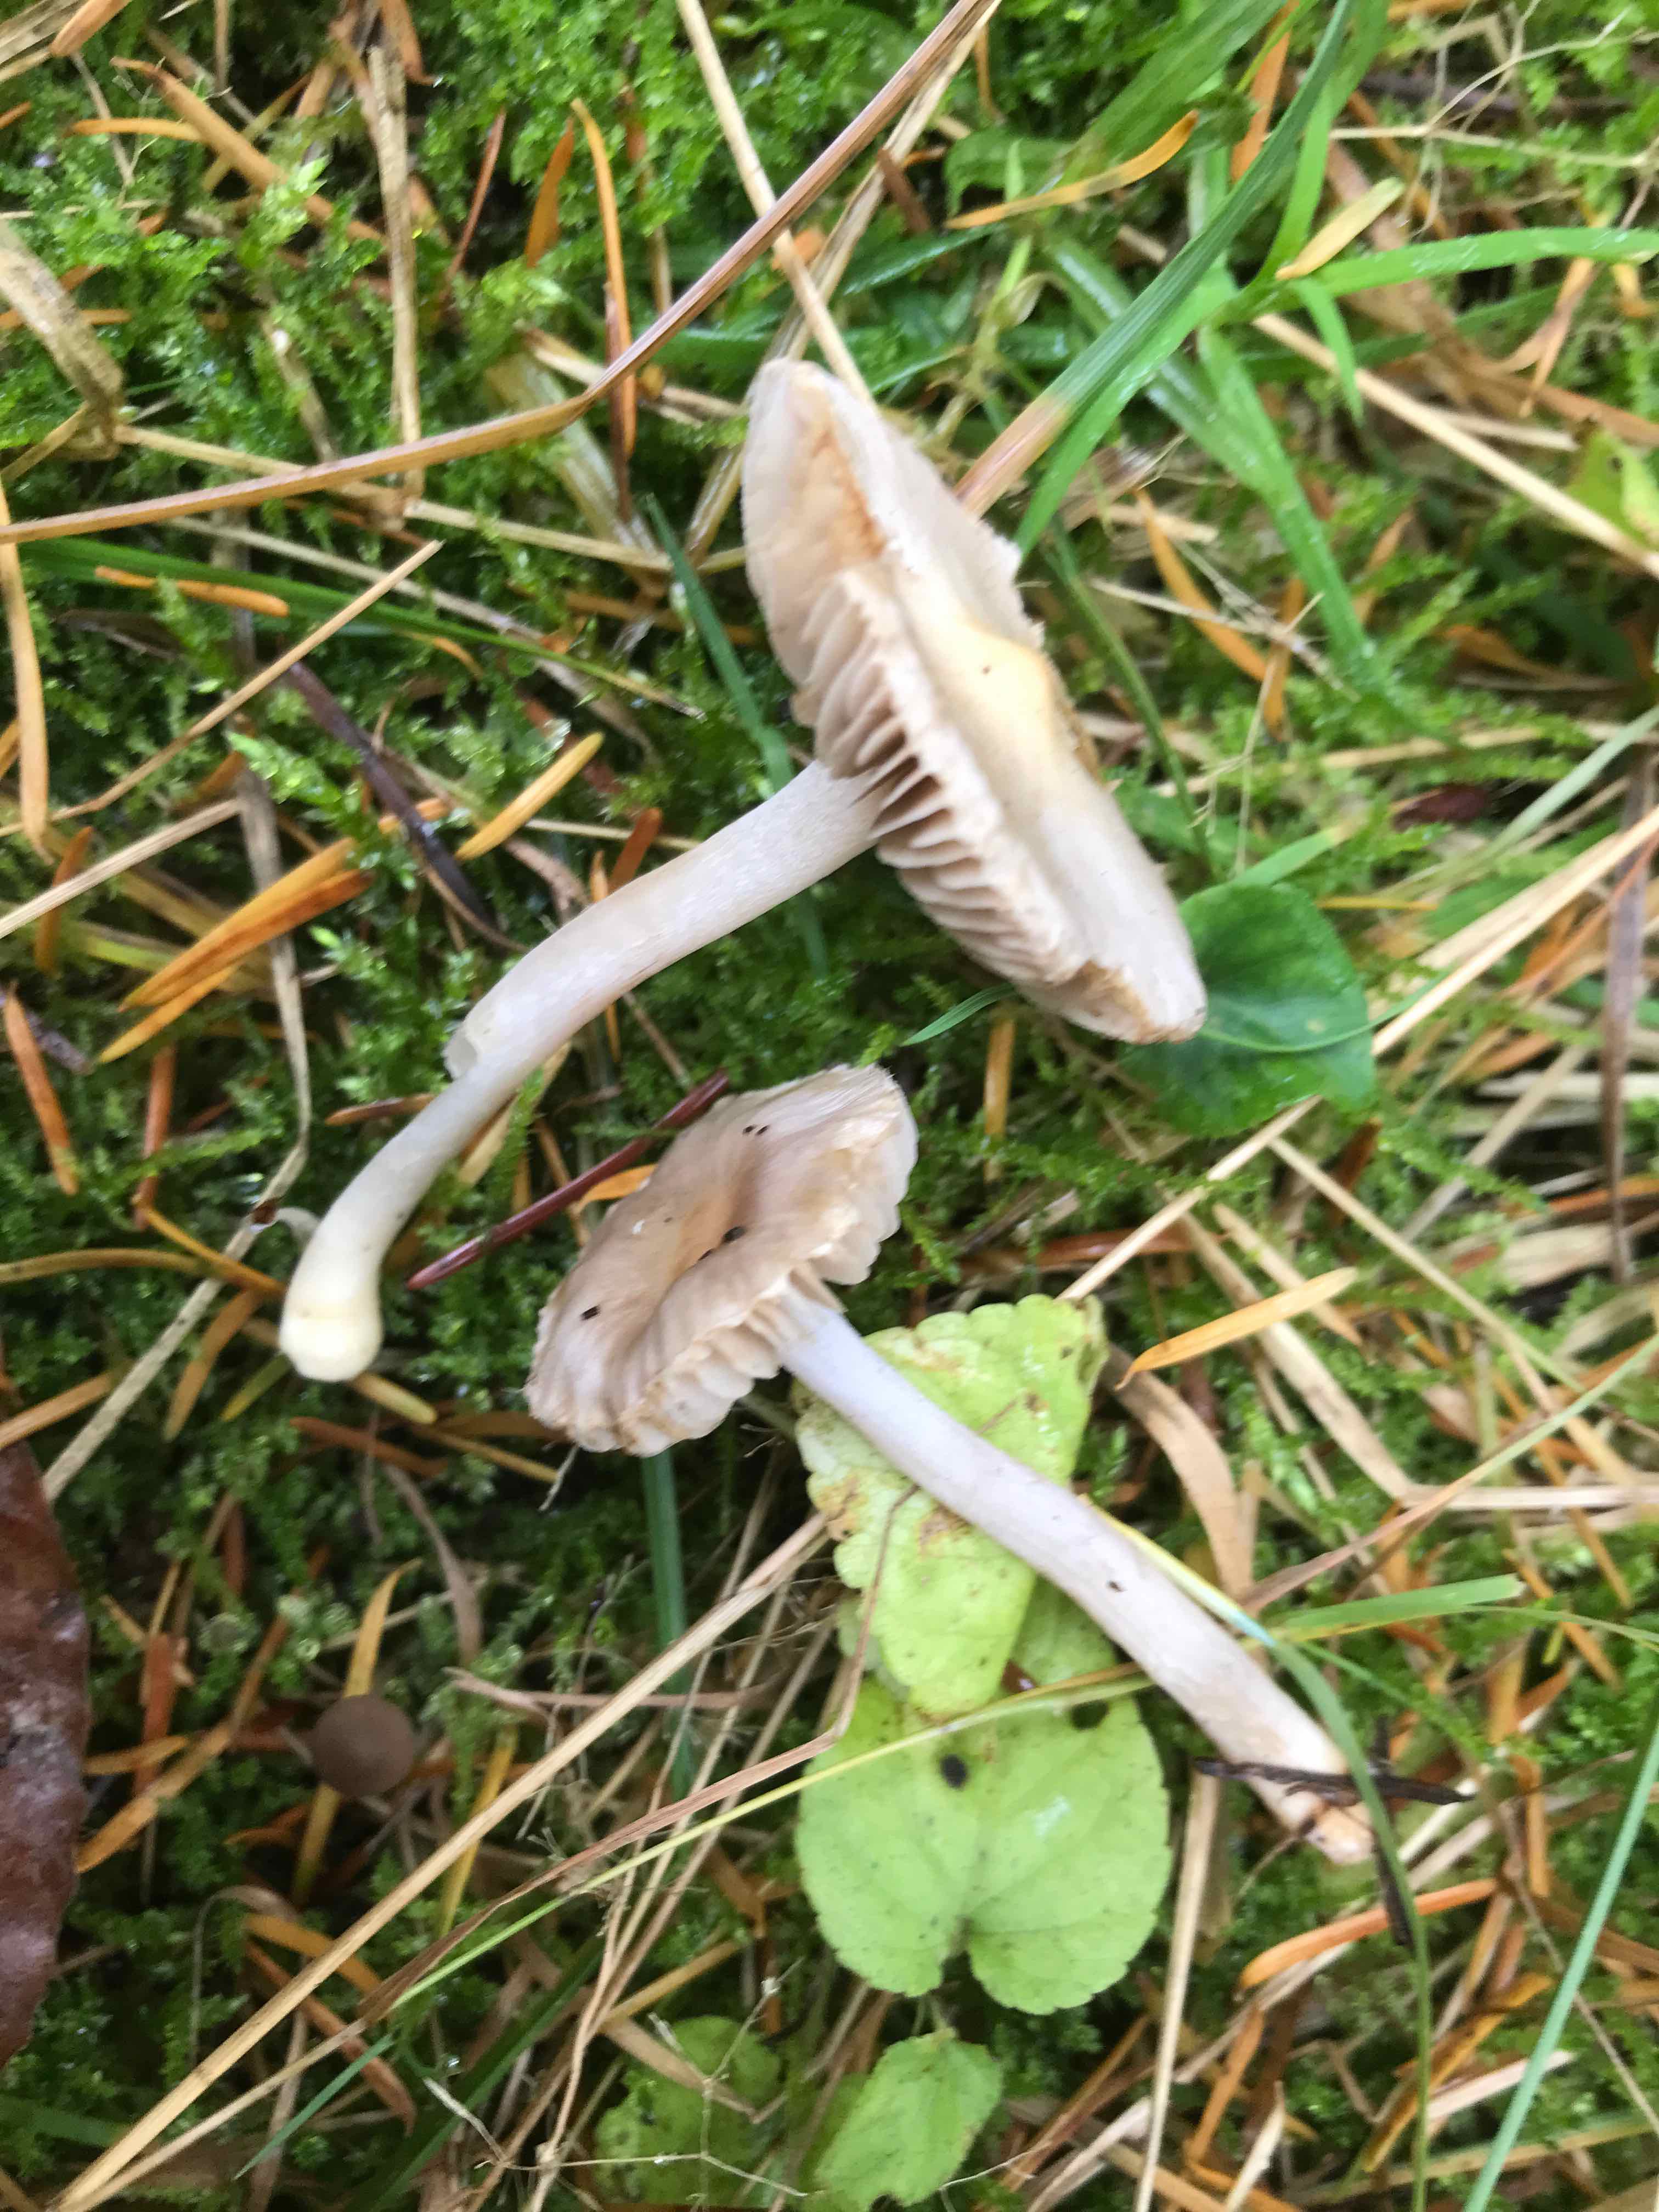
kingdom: Fungi
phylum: Basidiomycota
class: Agaricomycetes
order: Agaricales
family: Inocybaceae
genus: Inocybe
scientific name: Inocybe geophylla
